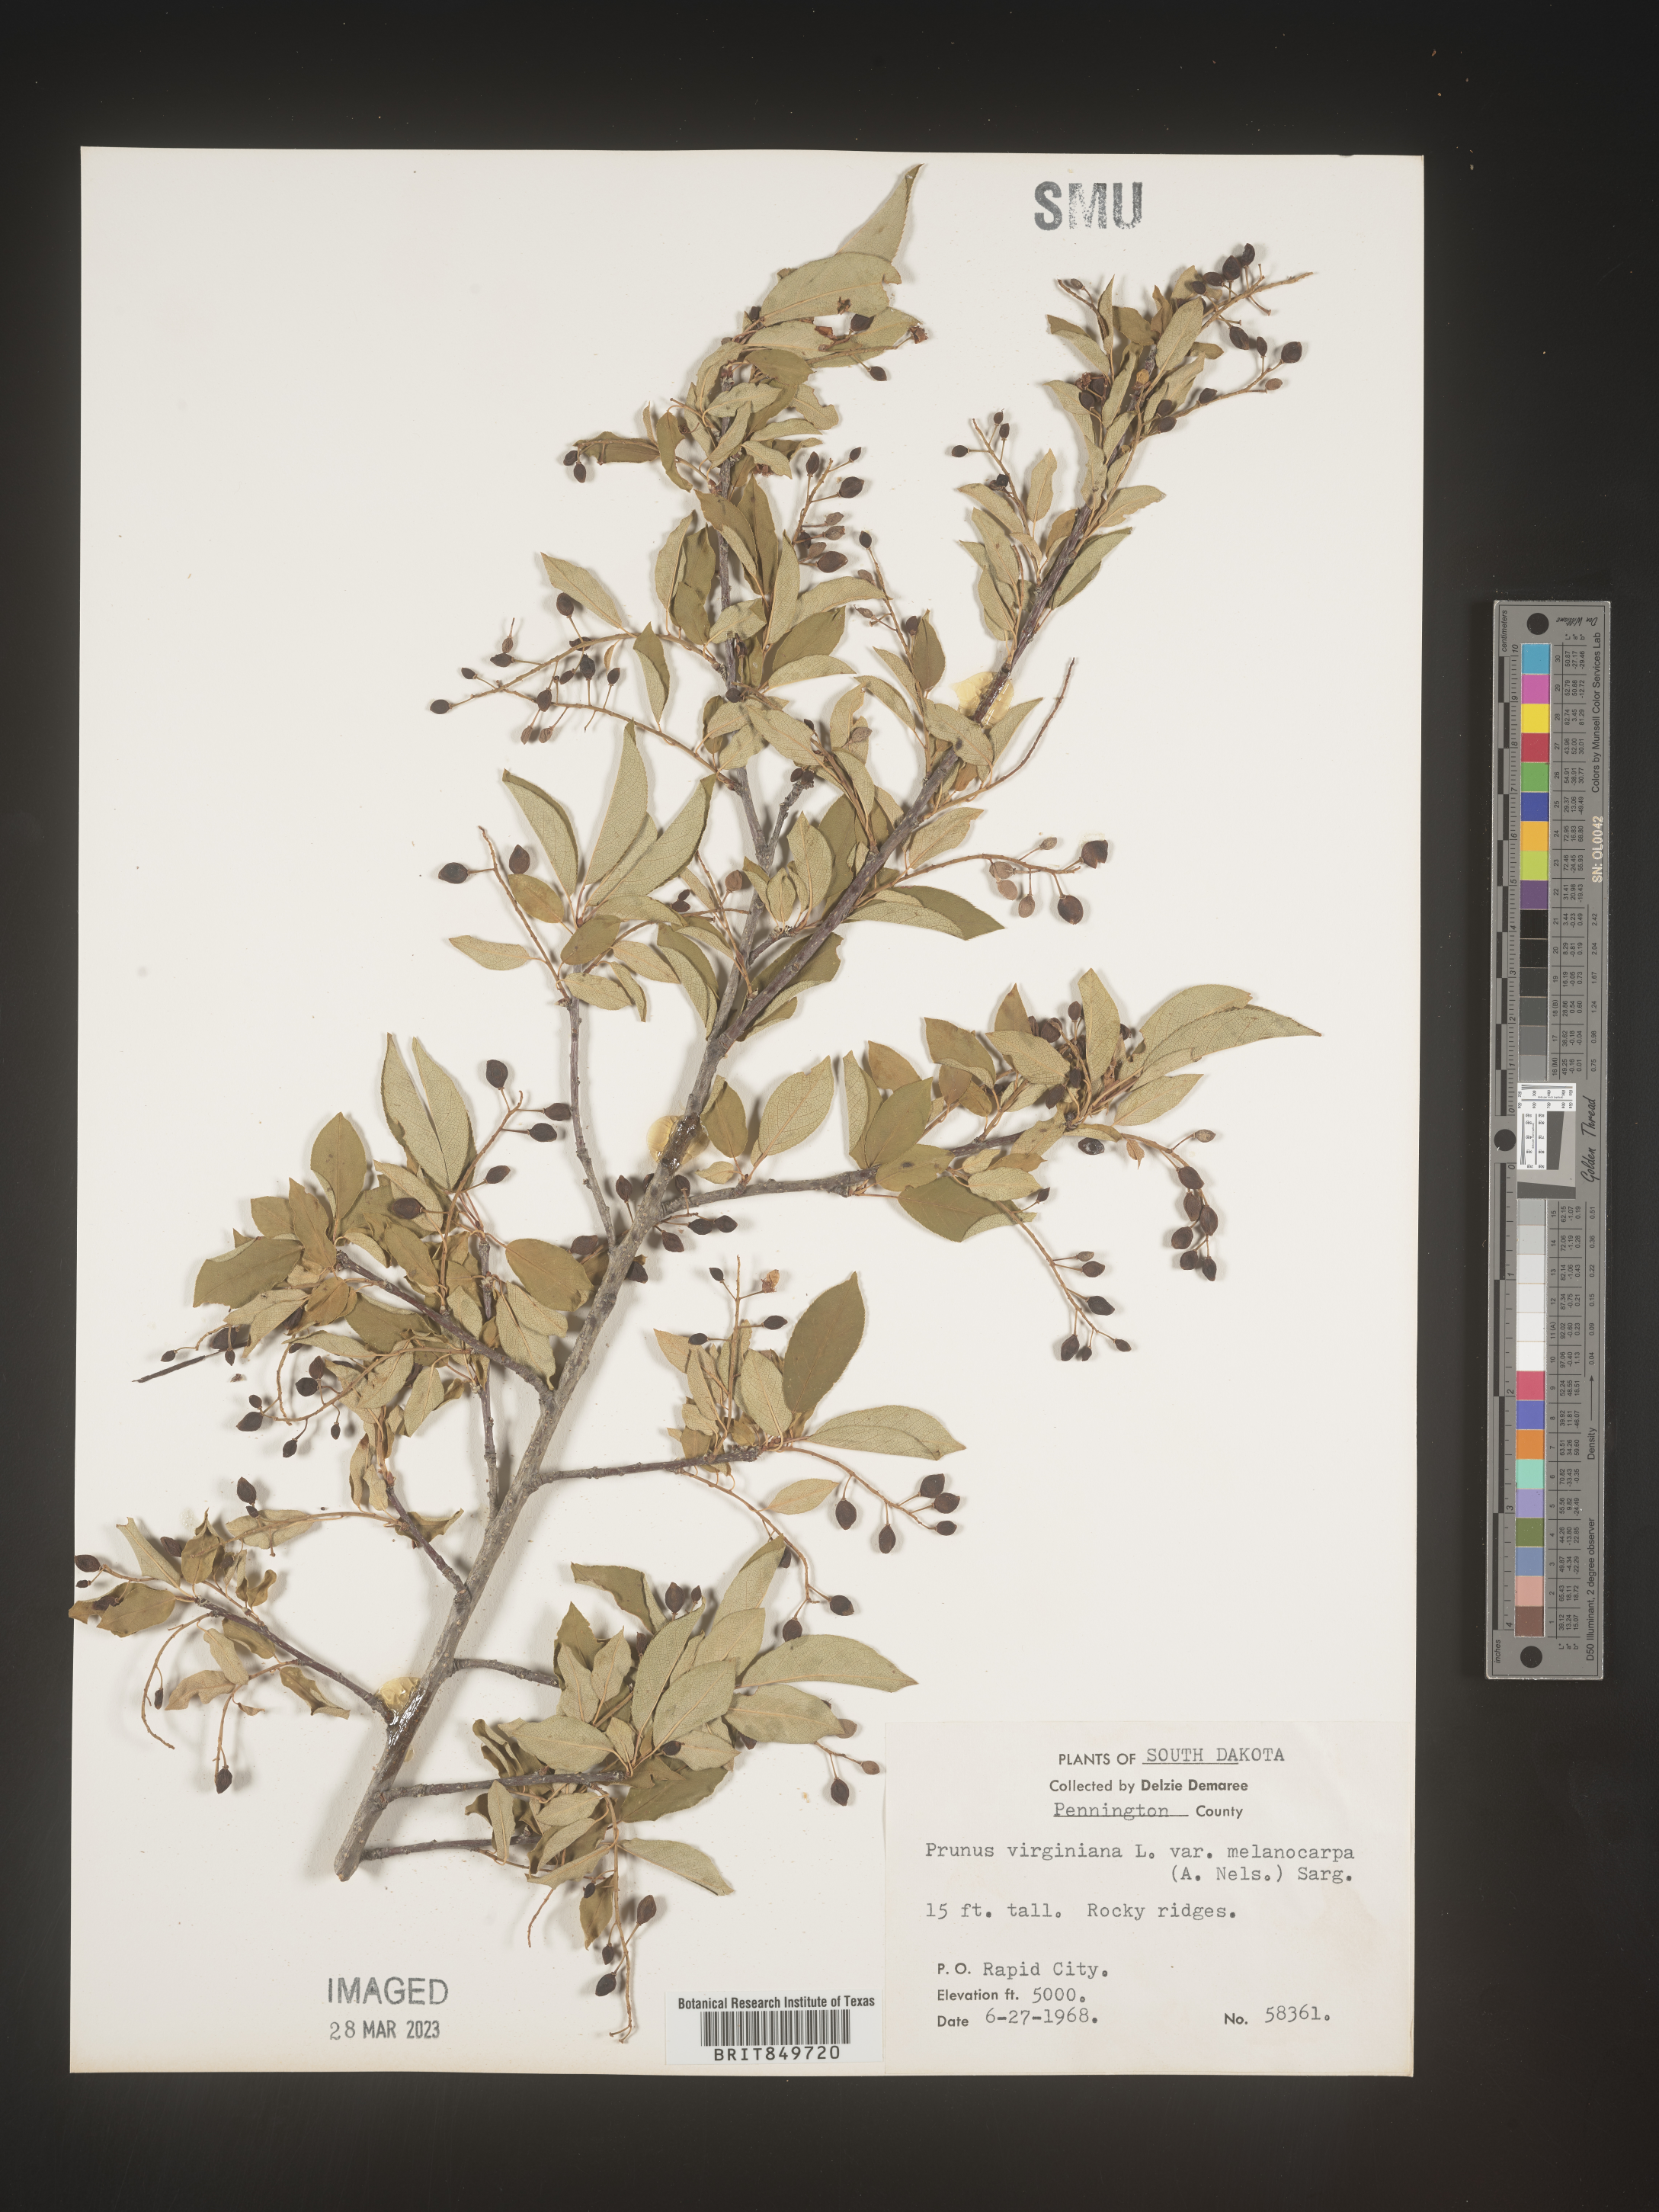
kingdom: Plantae
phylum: Tracheophyta
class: Magnoliopsida
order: Rosales
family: Rosaceae
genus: Prunus
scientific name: Prunus virginiana
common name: Chokecherry
